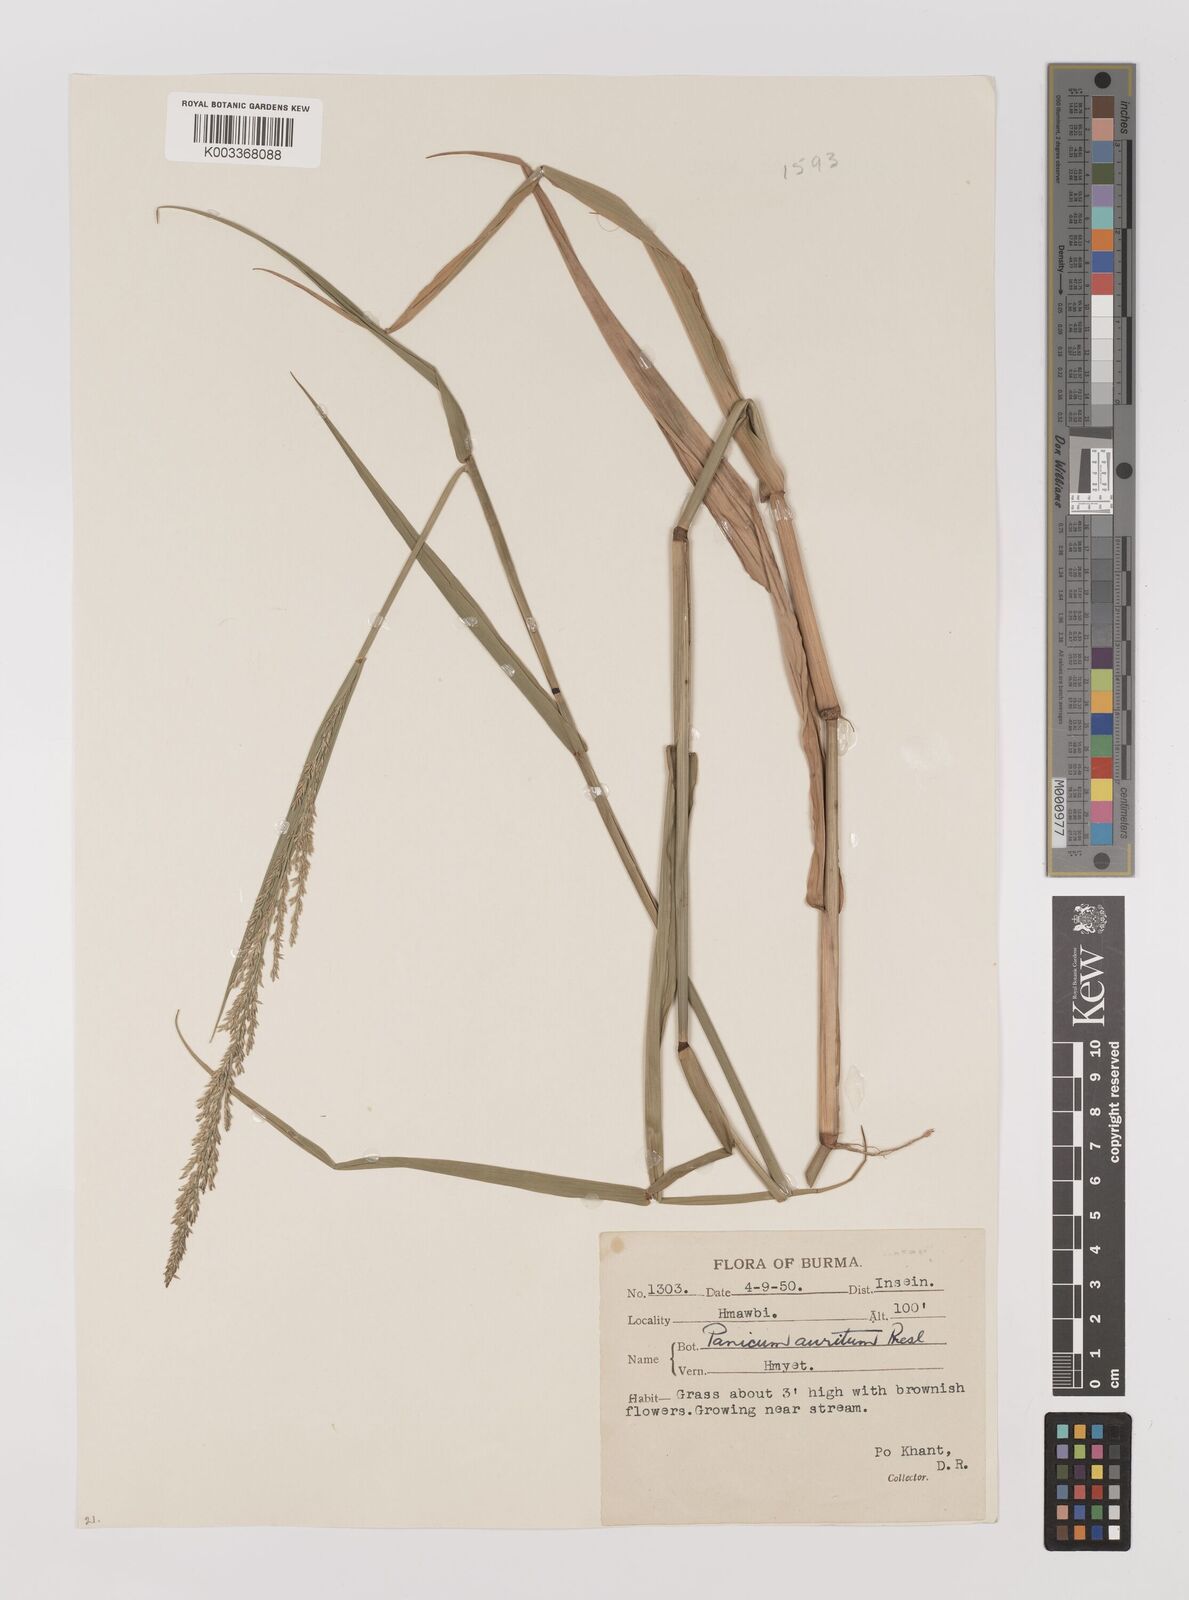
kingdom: Plantae
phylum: Tracheophyta
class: Liliopsida
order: Poales
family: Poaceae
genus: Hymenachne
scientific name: Hymenachne aurita
